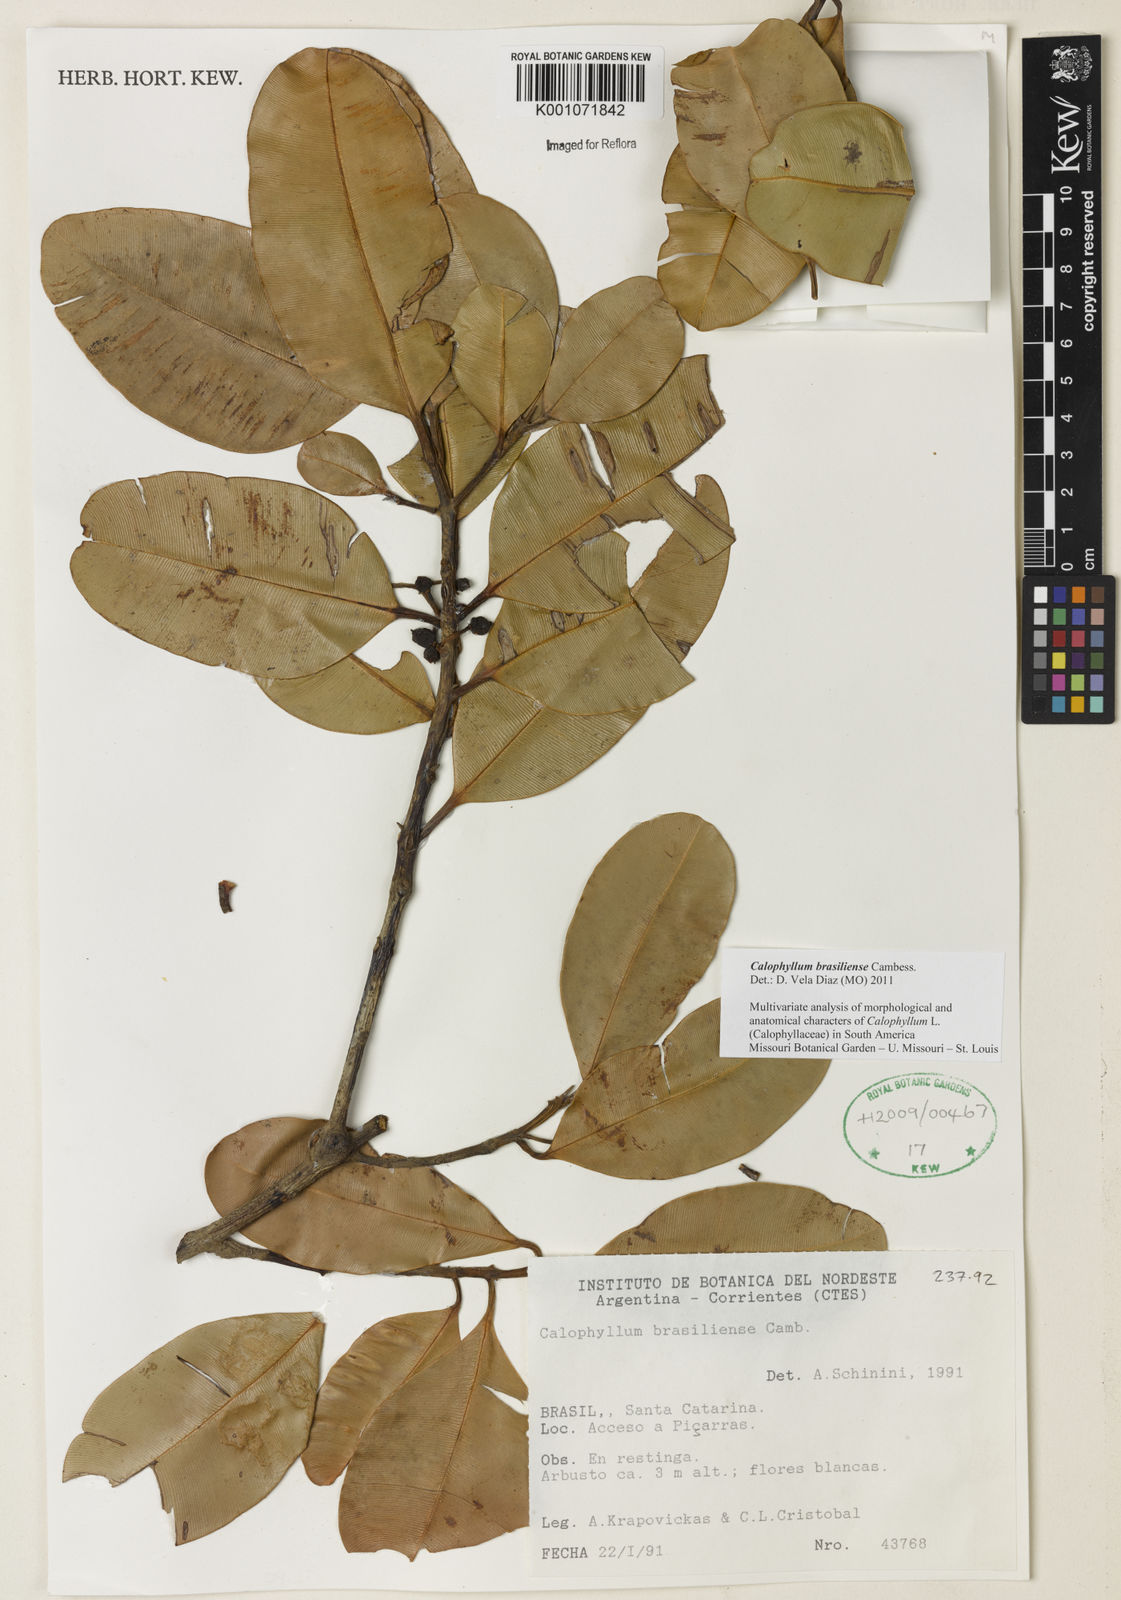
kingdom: Plantae
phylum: Tracheophyta
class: Magnoliopsida
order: Malpighiales
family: Calophyllaceae
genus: Calophyllum
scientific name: Calophyllum brasiliense
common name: Santa maria
